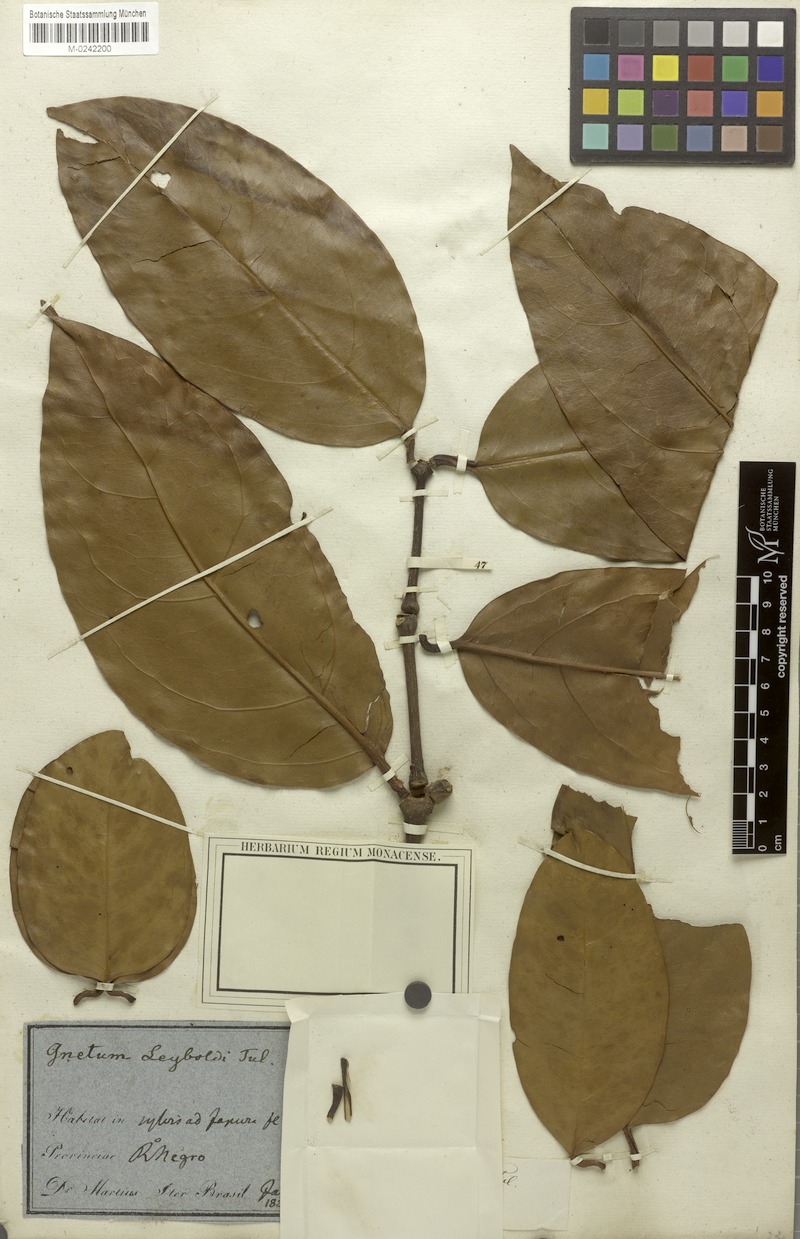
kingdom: Plantae
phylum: Tracheophyta
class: Gnetopsida
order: Gnetales
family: Gnetaceae
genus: Gnetum
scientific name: Gnetum leyboldii
